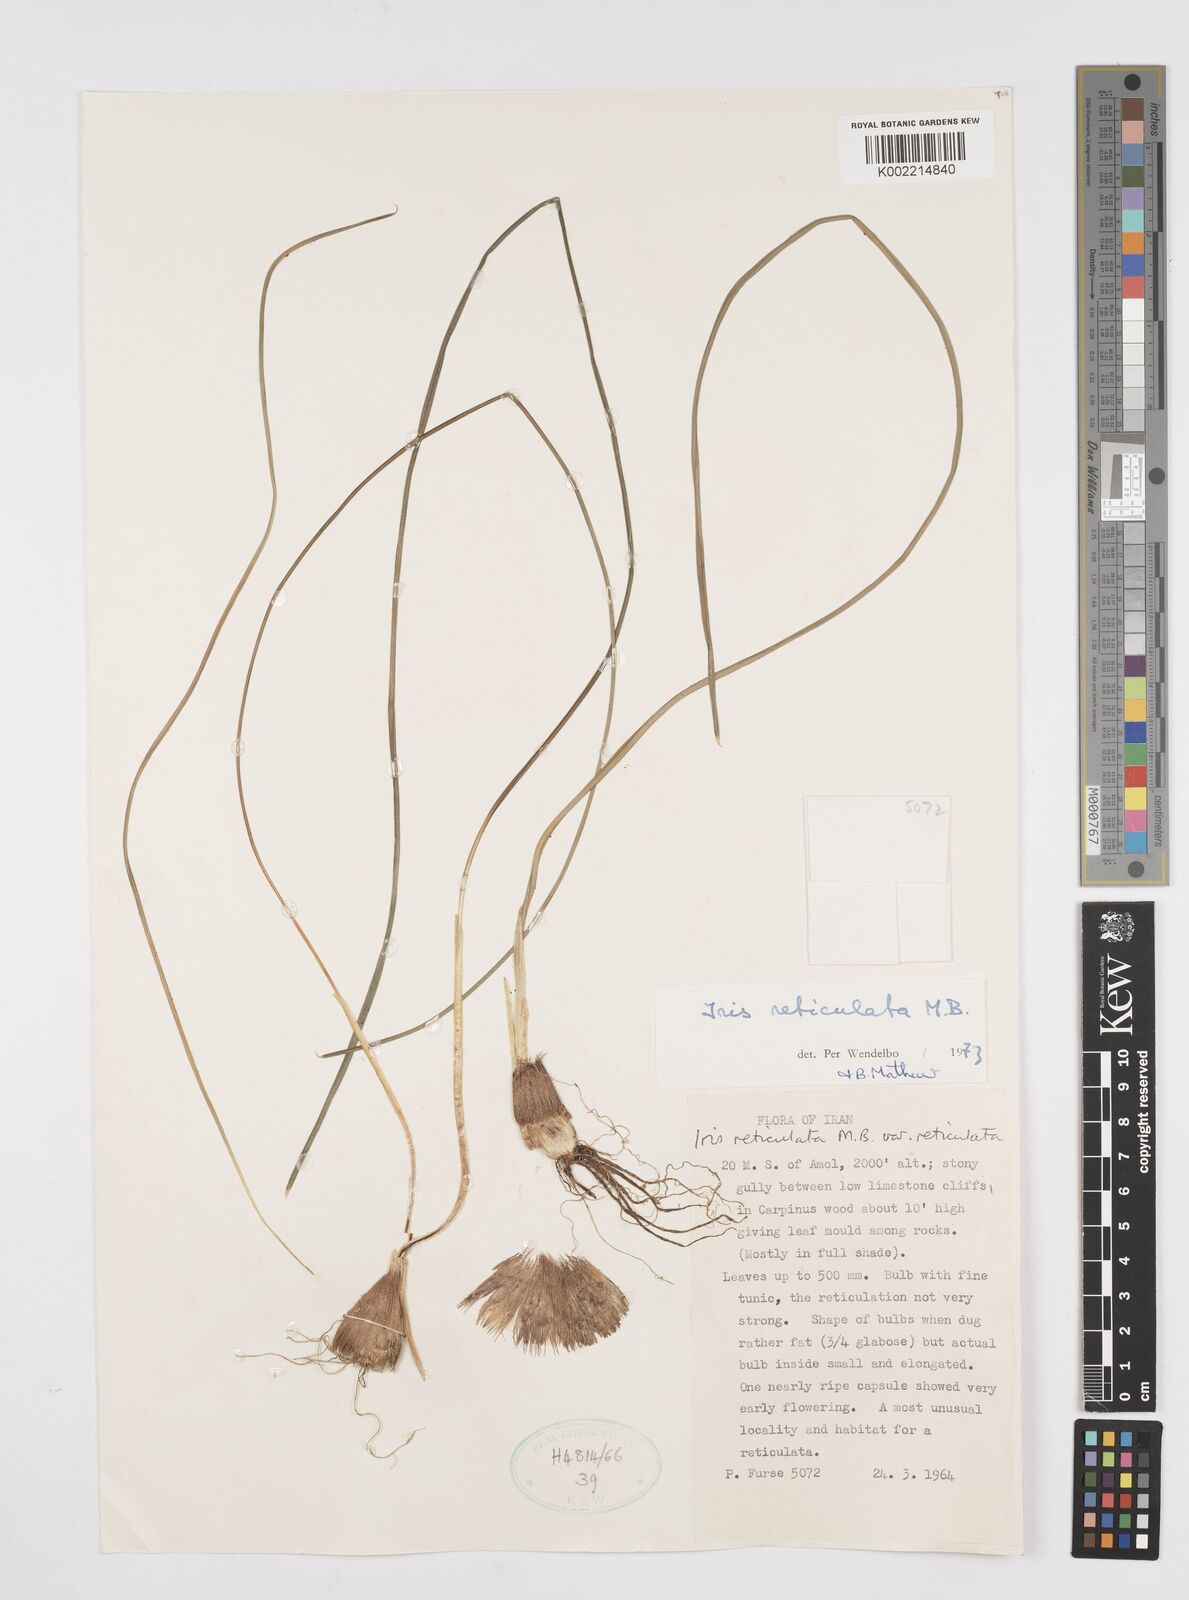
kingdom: Plantae
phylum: Tracheophyta
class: Liliopsida
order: Asparagales
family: Iridaceae
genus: Iris
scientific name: Iris reticulata
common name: Netted iris
